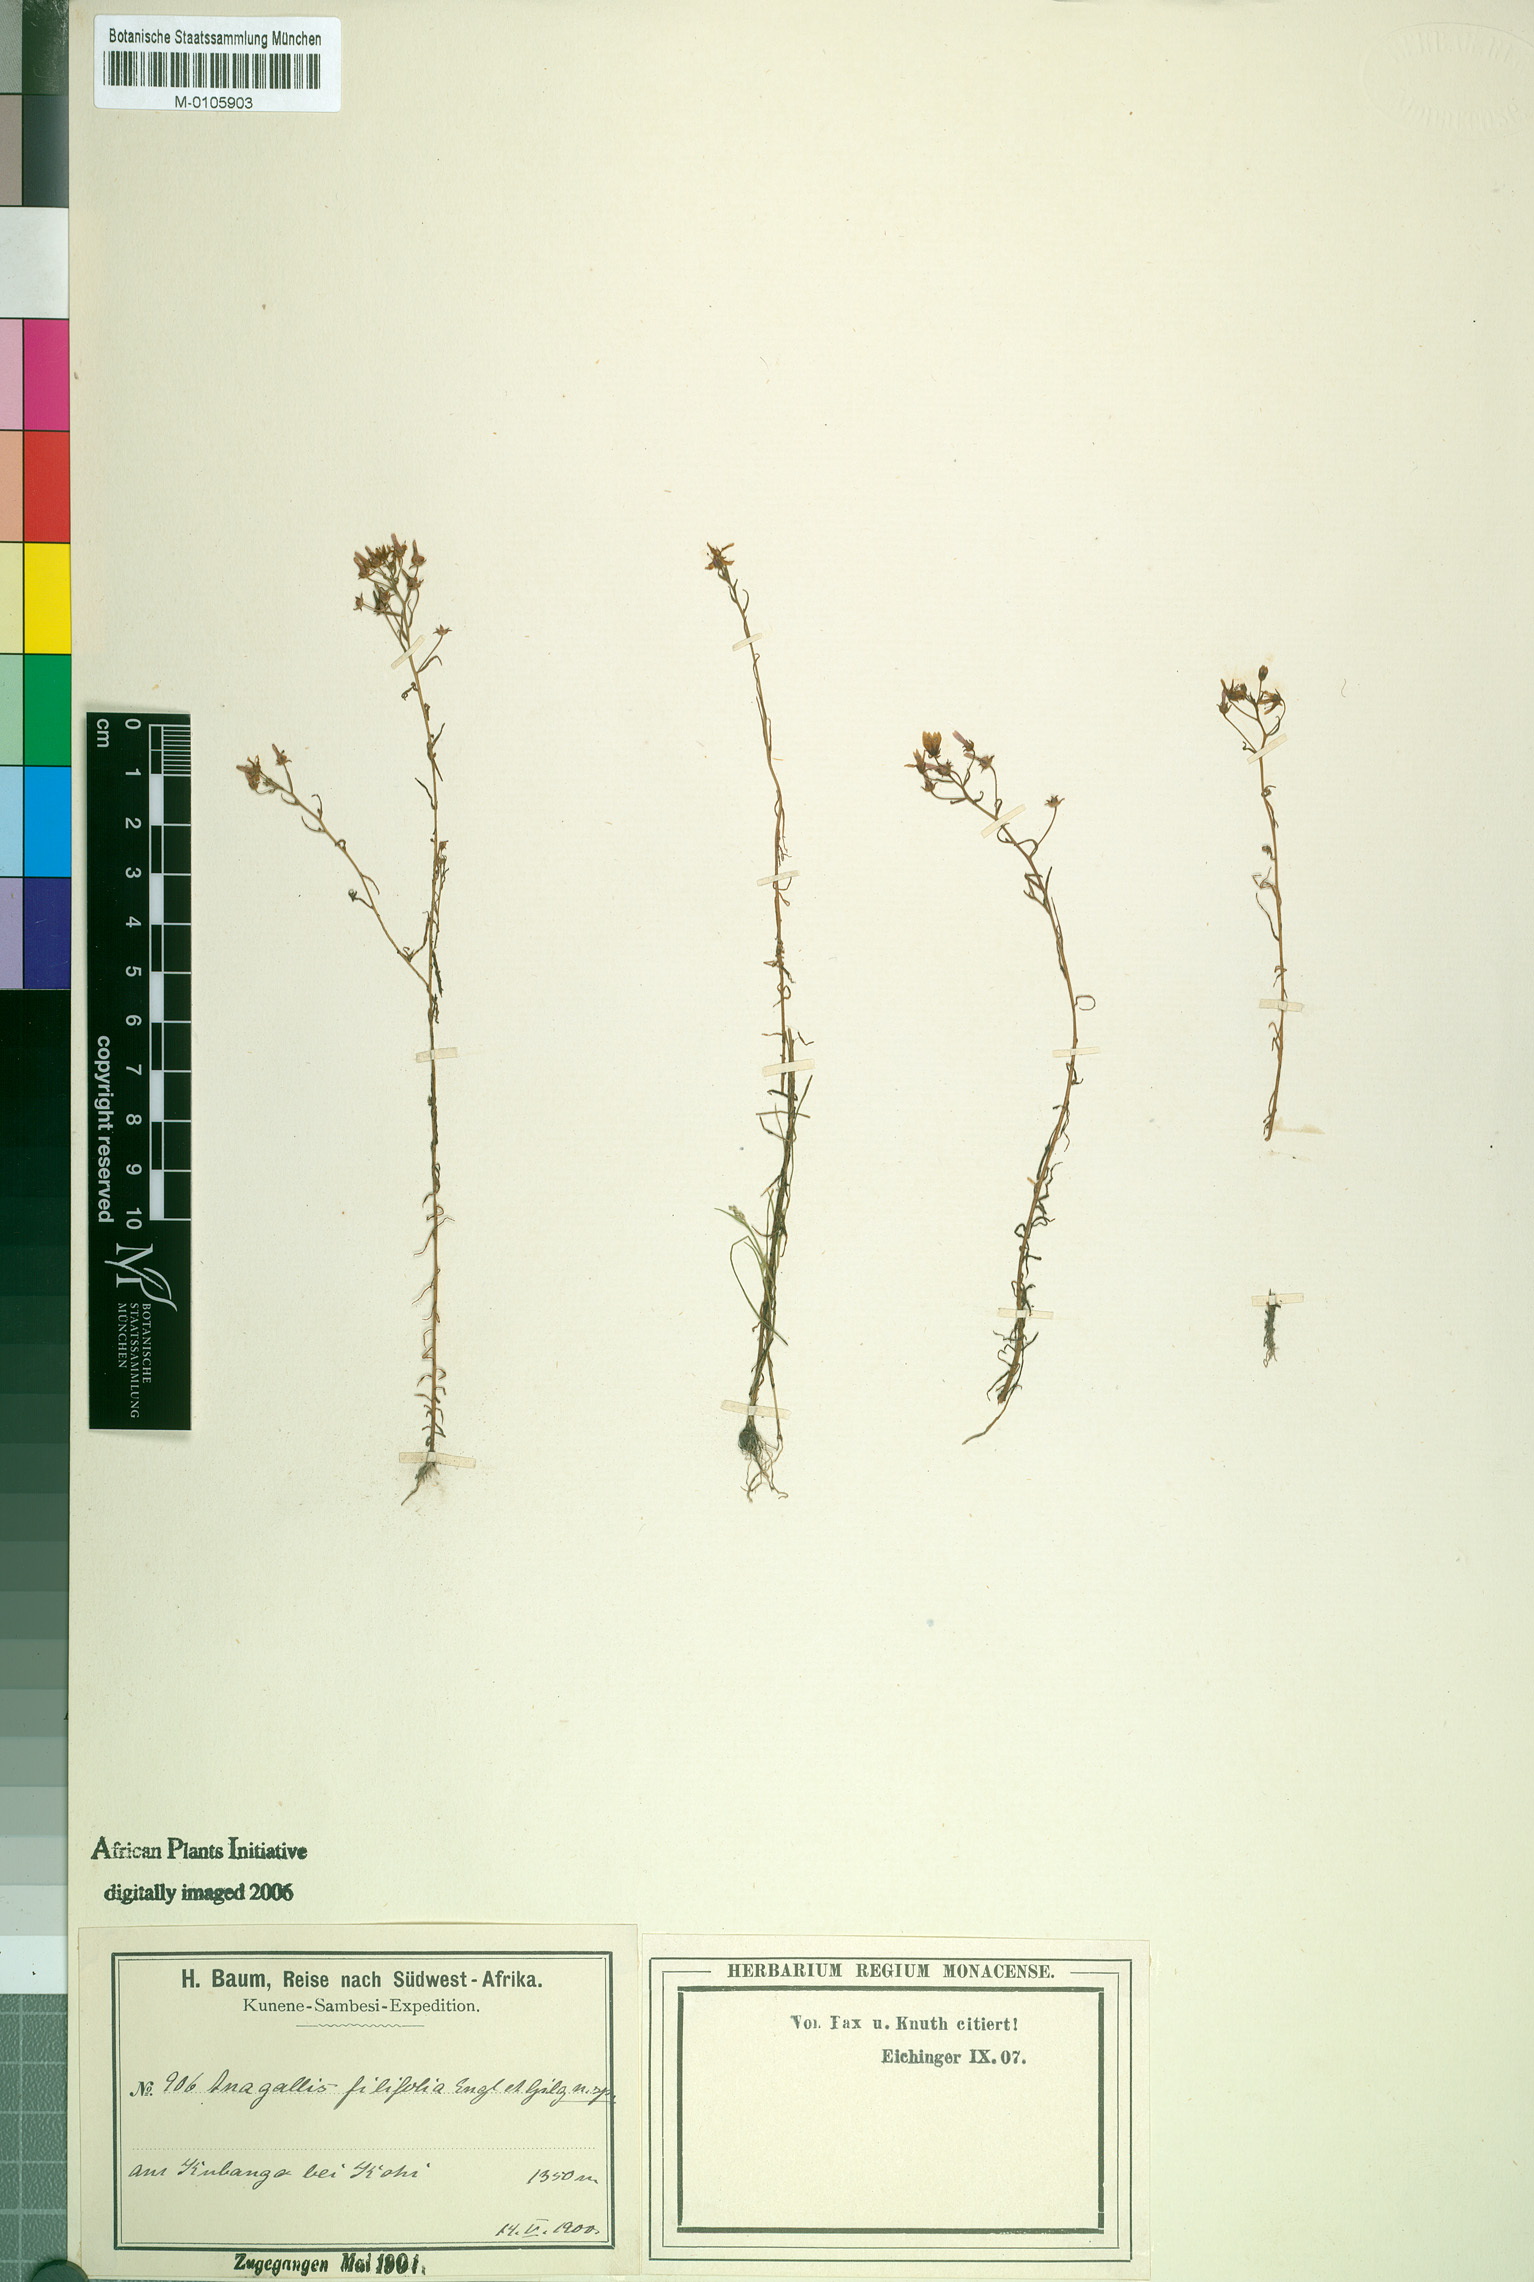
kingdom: Plantae
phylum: Tracheophyta
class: Magnoliopsida
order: Ericales
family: Primulaceae
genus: Lysimachia
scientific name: Lysimachia cubangensis
